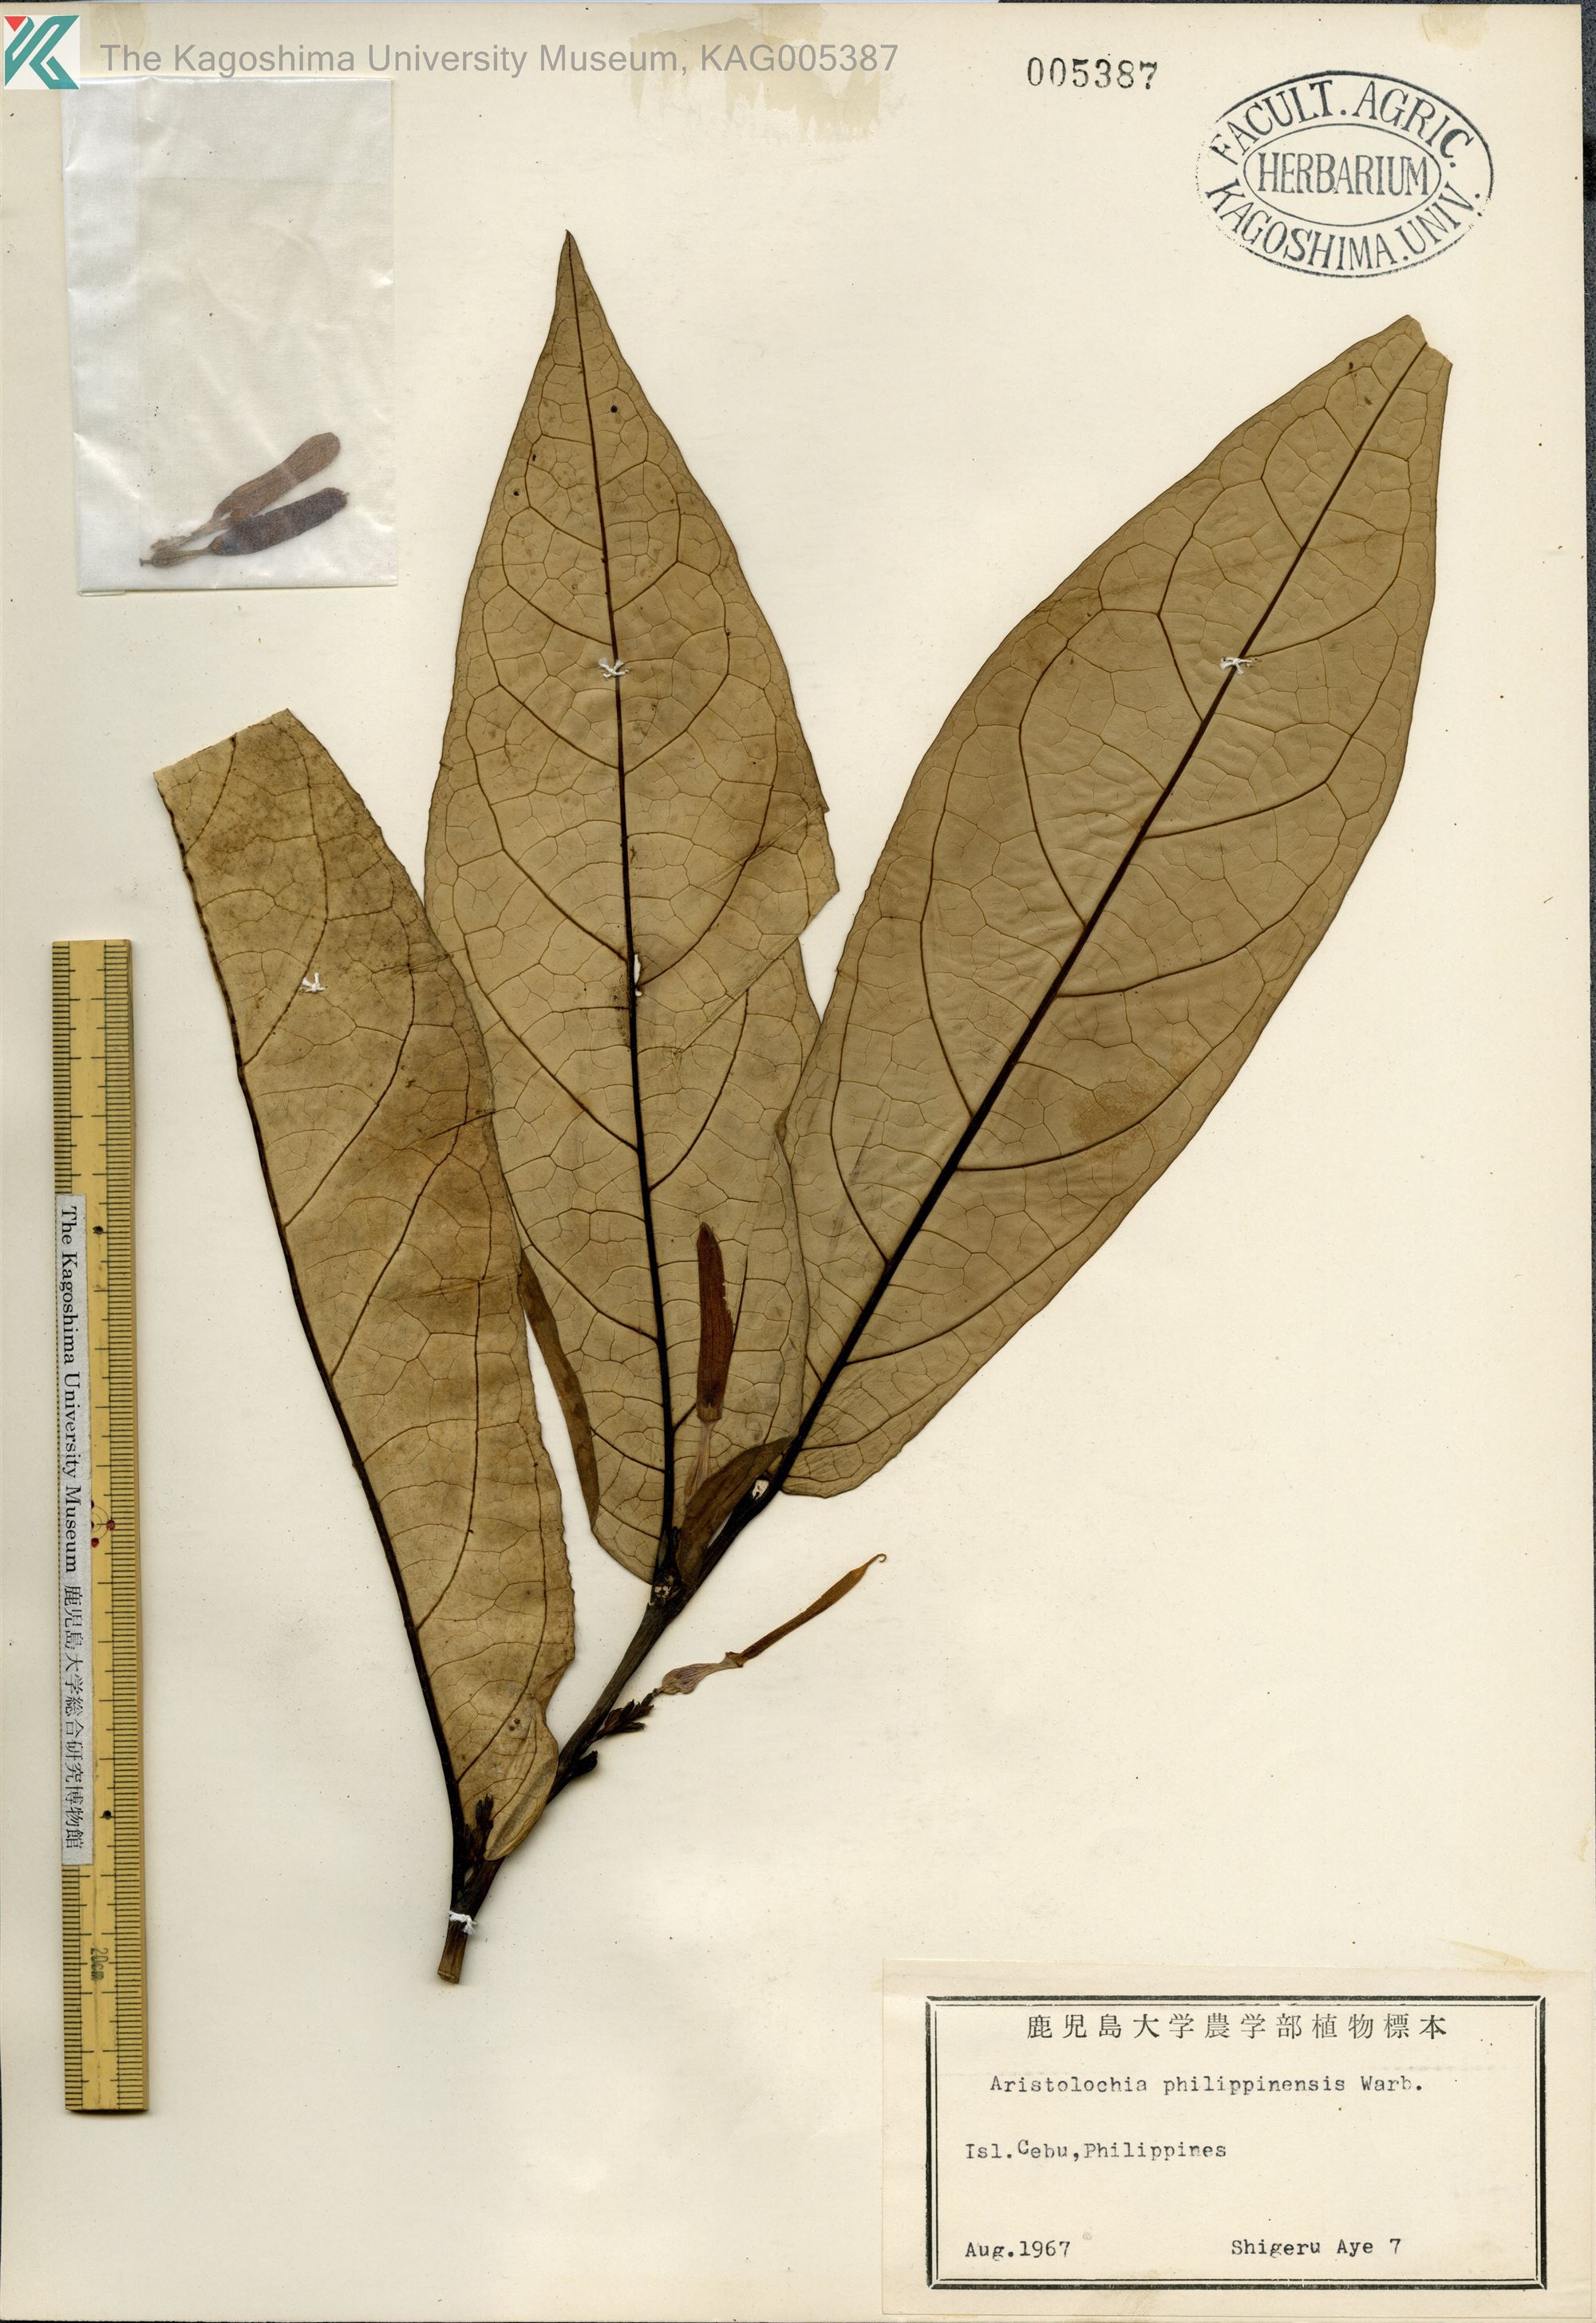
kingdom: Plantae
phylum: Tracheophyta
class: Magnoliopsida
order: Piperales
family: Aristolochiaceae
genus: Aristolochia
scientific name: Aristolochia philippinensis
